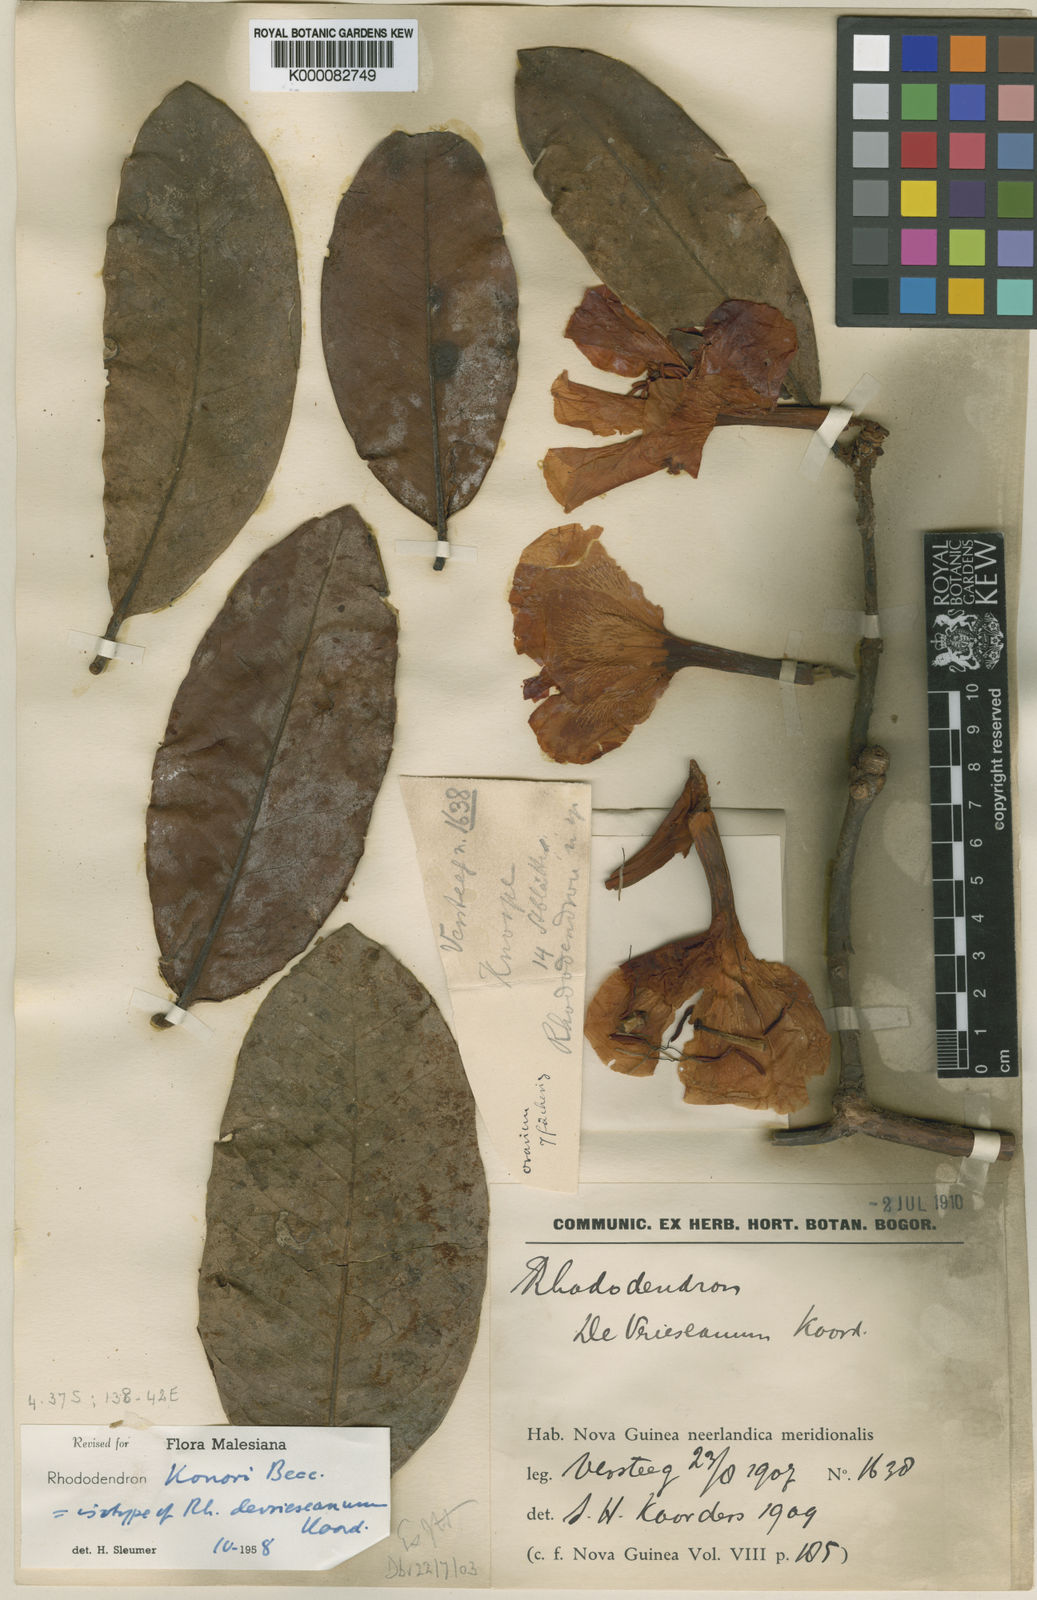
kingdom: Plantae
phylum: Tracheophyta
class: Magnoliopsida
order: Ericales
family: Ericaceae
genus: Rhododendron
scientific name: Rhododendron konori
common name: Konor rhododendron
